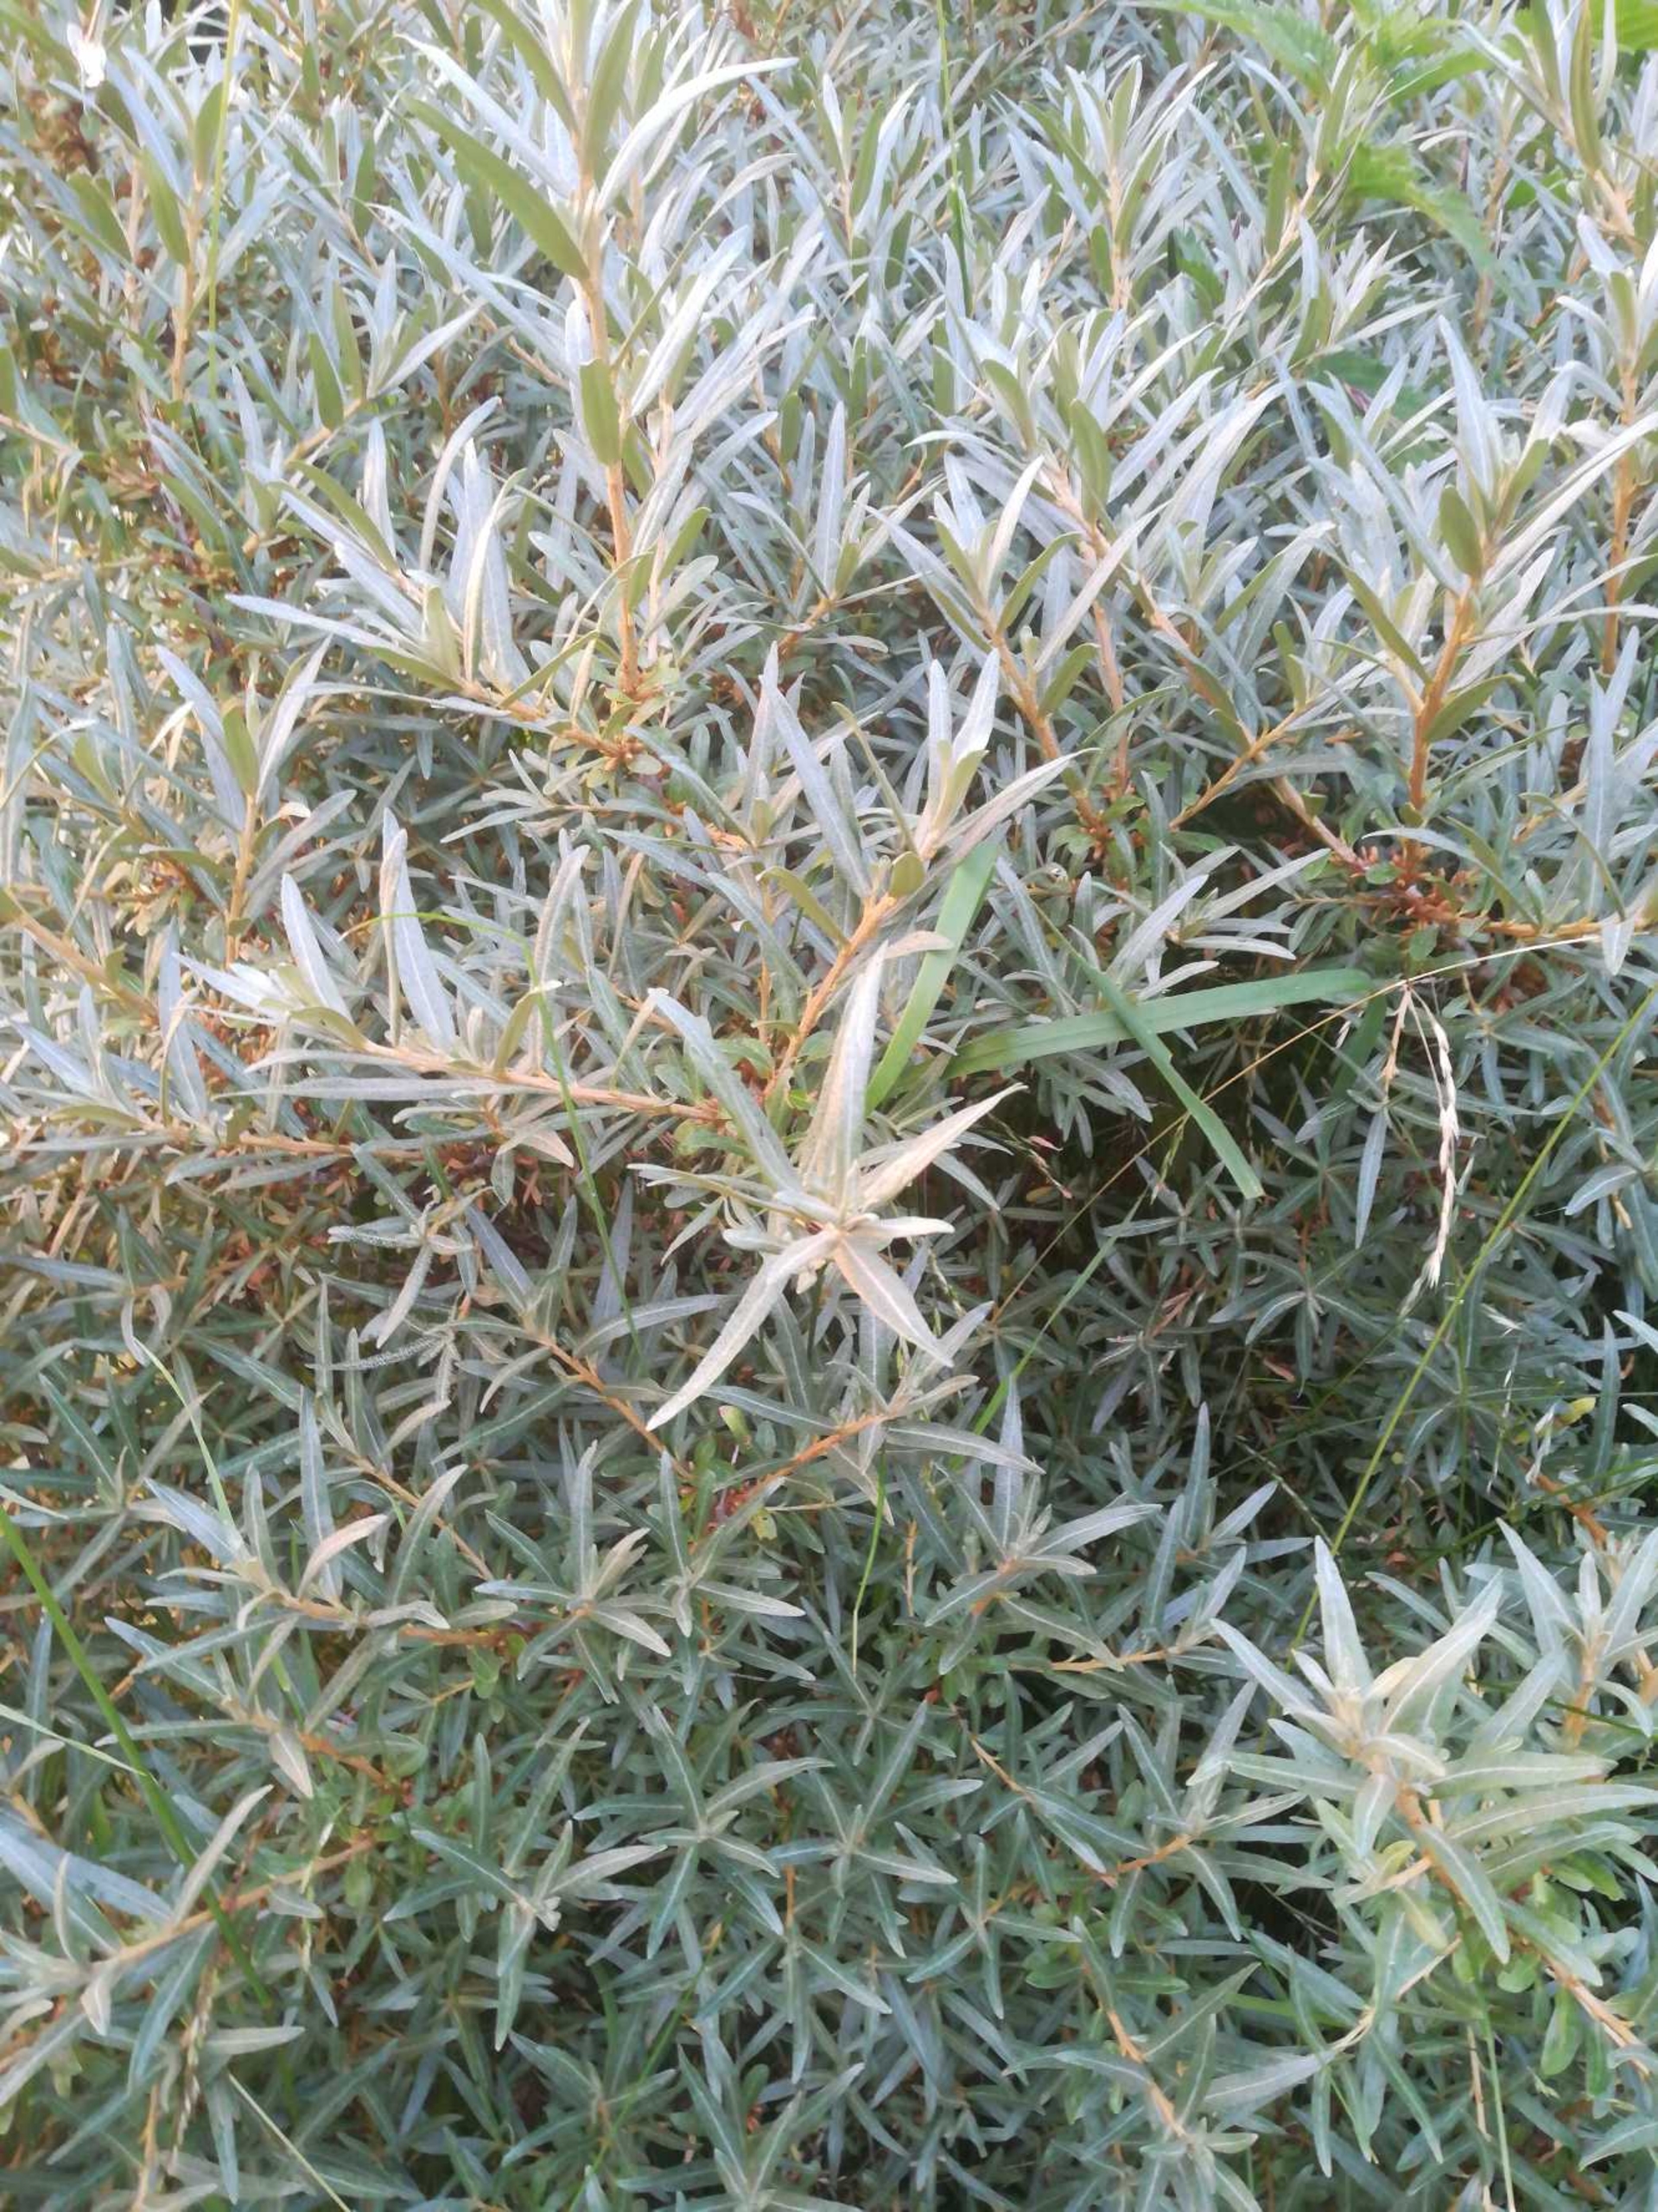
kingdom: Plantae
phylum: Tracheophyta
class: Magnoliopsida
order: Rosales
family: Elaeagnaceae
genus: Hippophae
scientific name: Hippophae rhamnoides
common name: Havtorn
